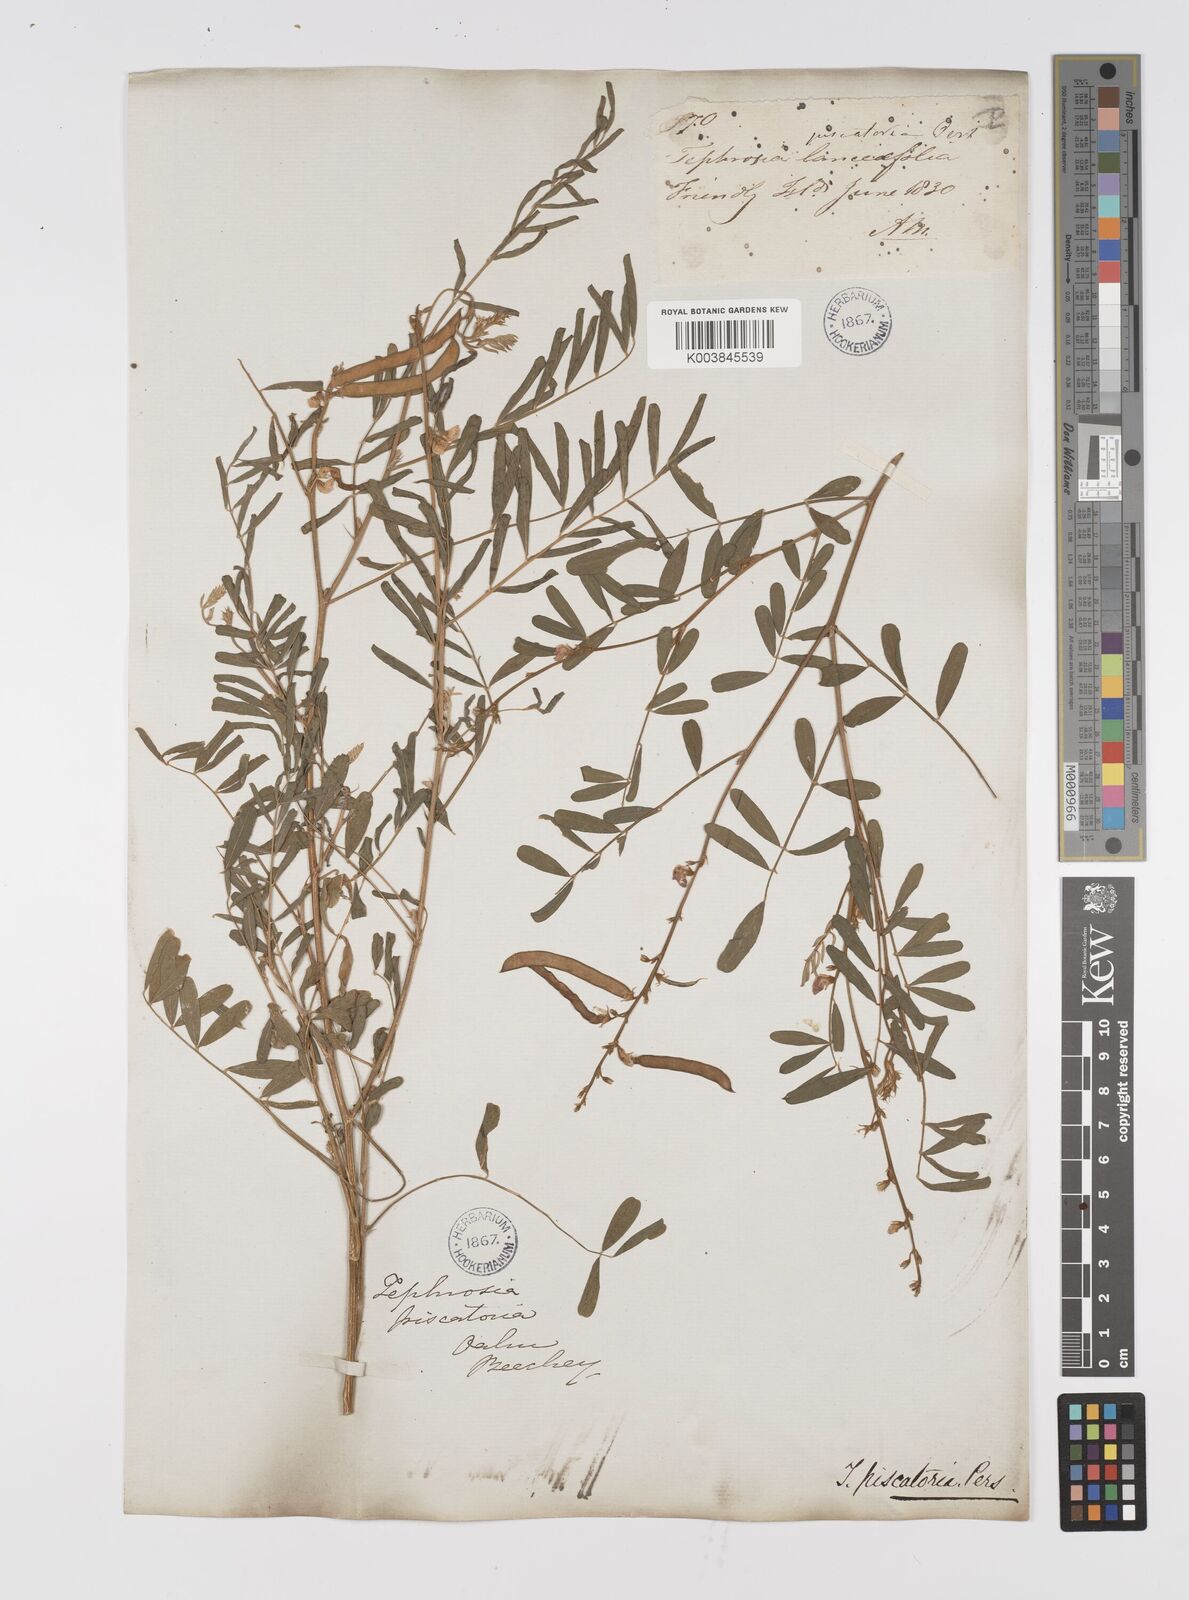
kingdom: Plantae
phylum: Tracheophyta
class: Magnoliopsida
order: Fabales
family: Fabaceae
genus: Tephrosia
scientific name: Tephrosia purpurea
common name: Fishpoison
